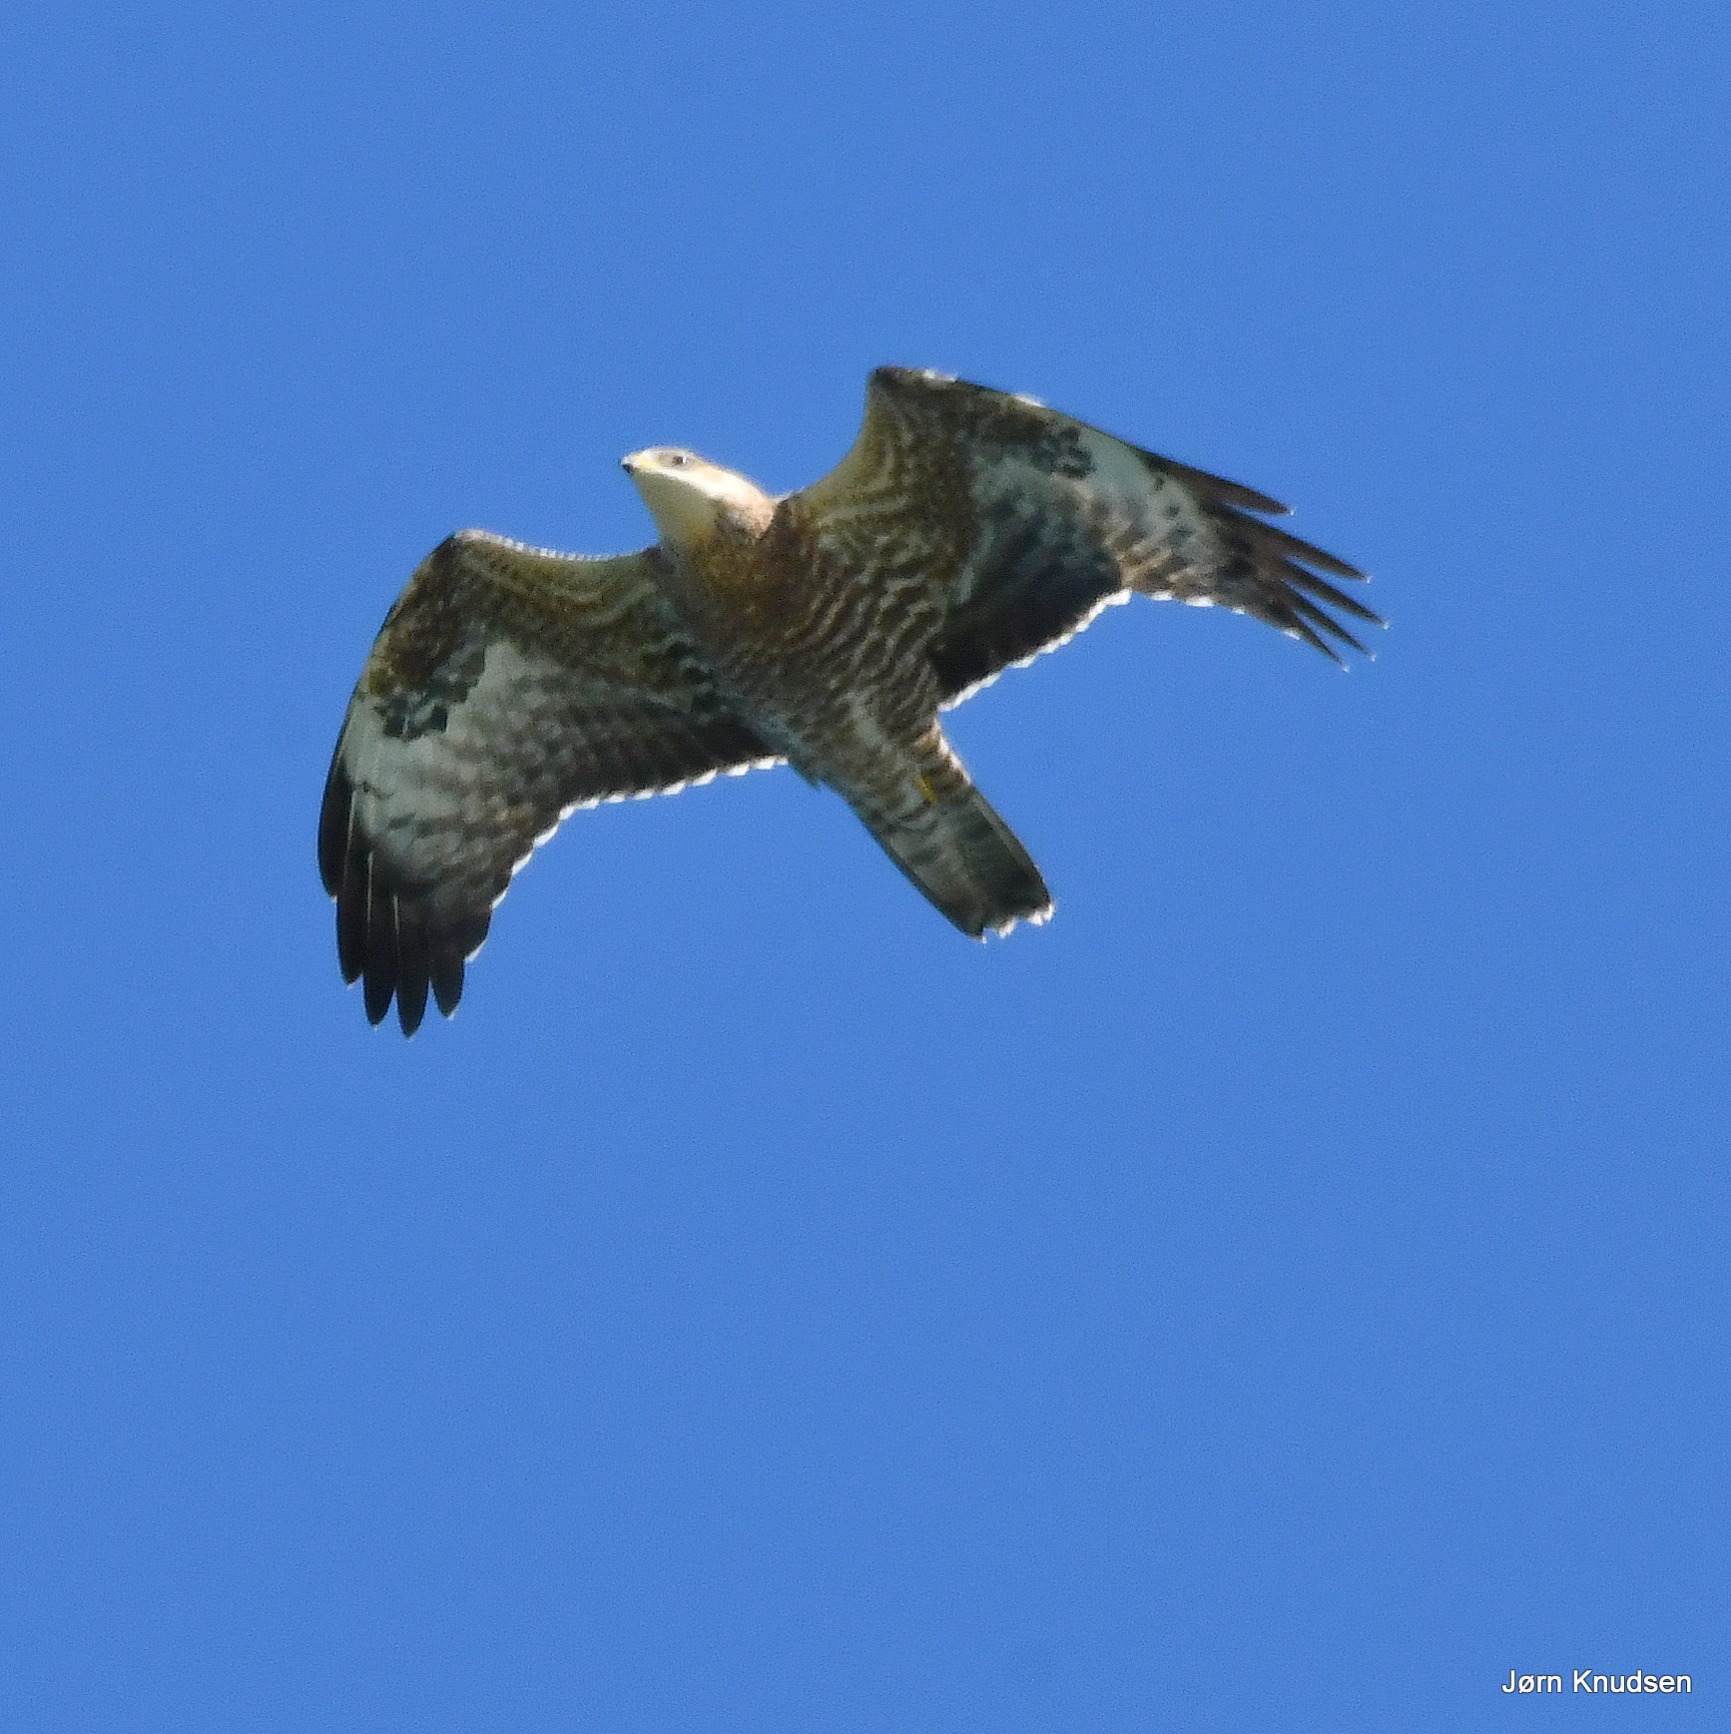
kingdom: Animalia
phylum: Chordata
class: Aves
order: Accipitriformes
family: Accipitridae
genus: Pernis
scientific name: Pernis apivorus
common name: Hvepsevåge
